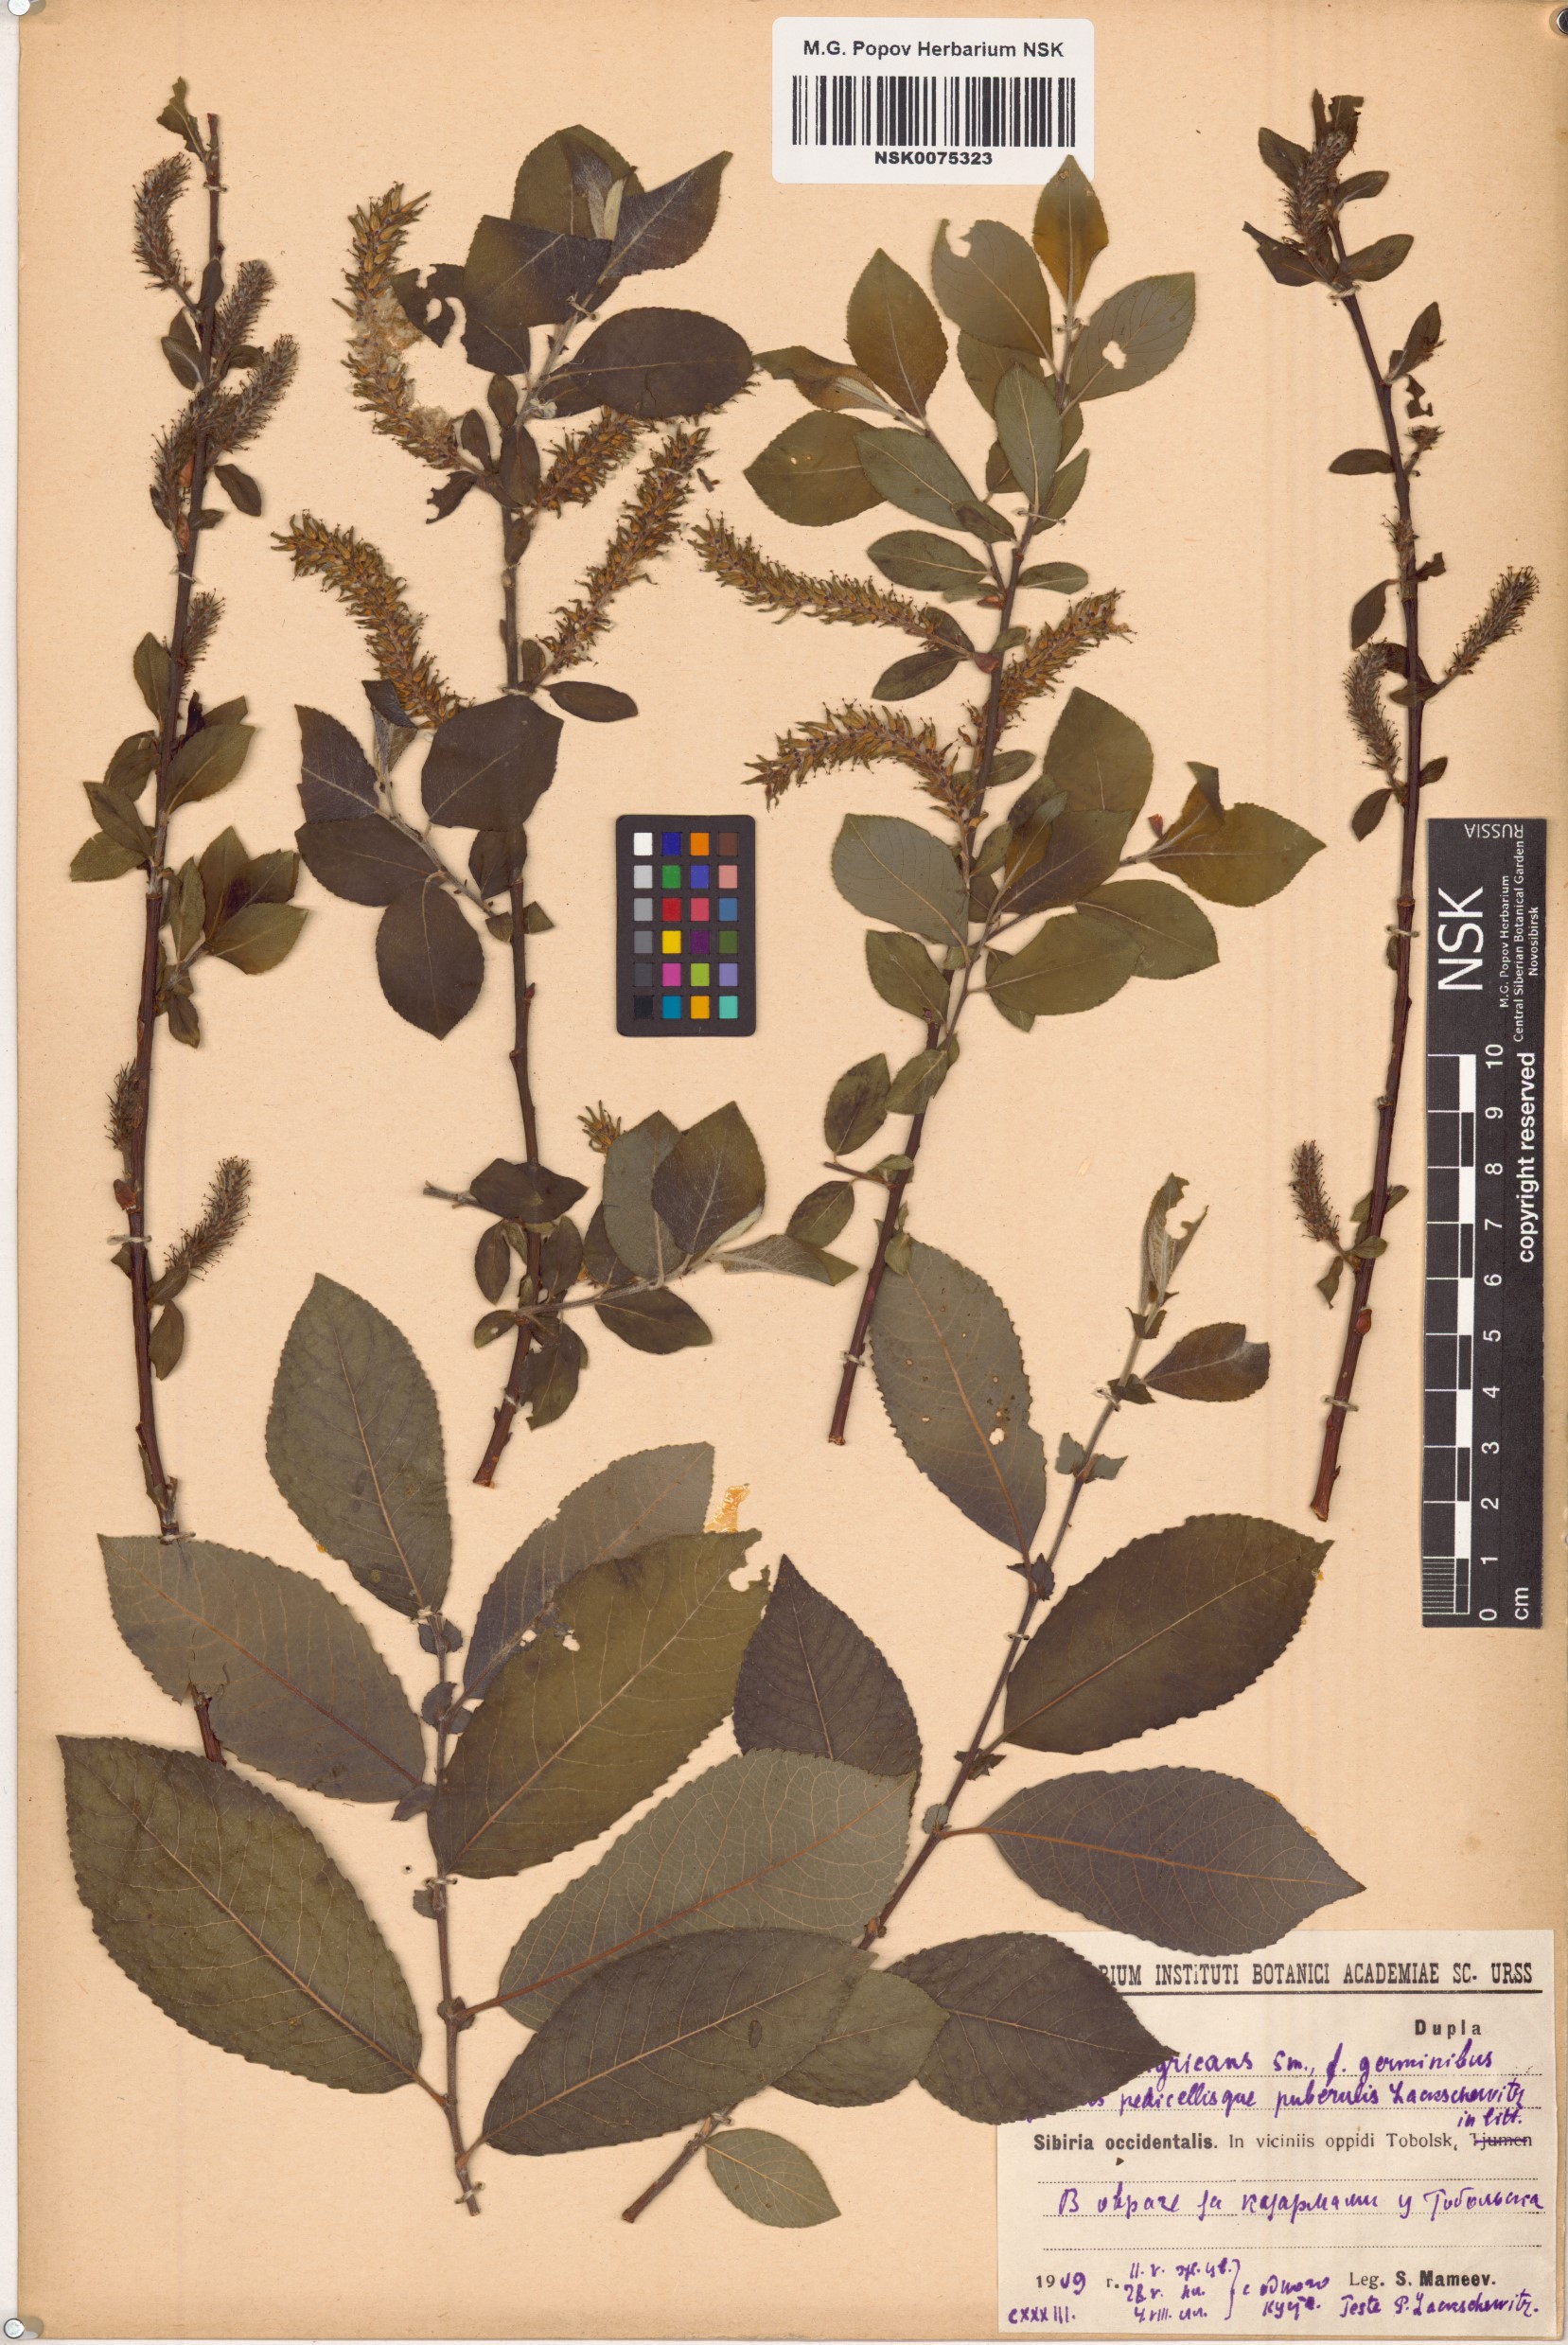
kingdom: Plantae
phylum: Tracheophyta
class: Magnoliopsida
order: Malpighiales
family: Salicaceae
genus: Salix
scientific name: Salix myrsinifolia
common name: Dark-leaved willow
